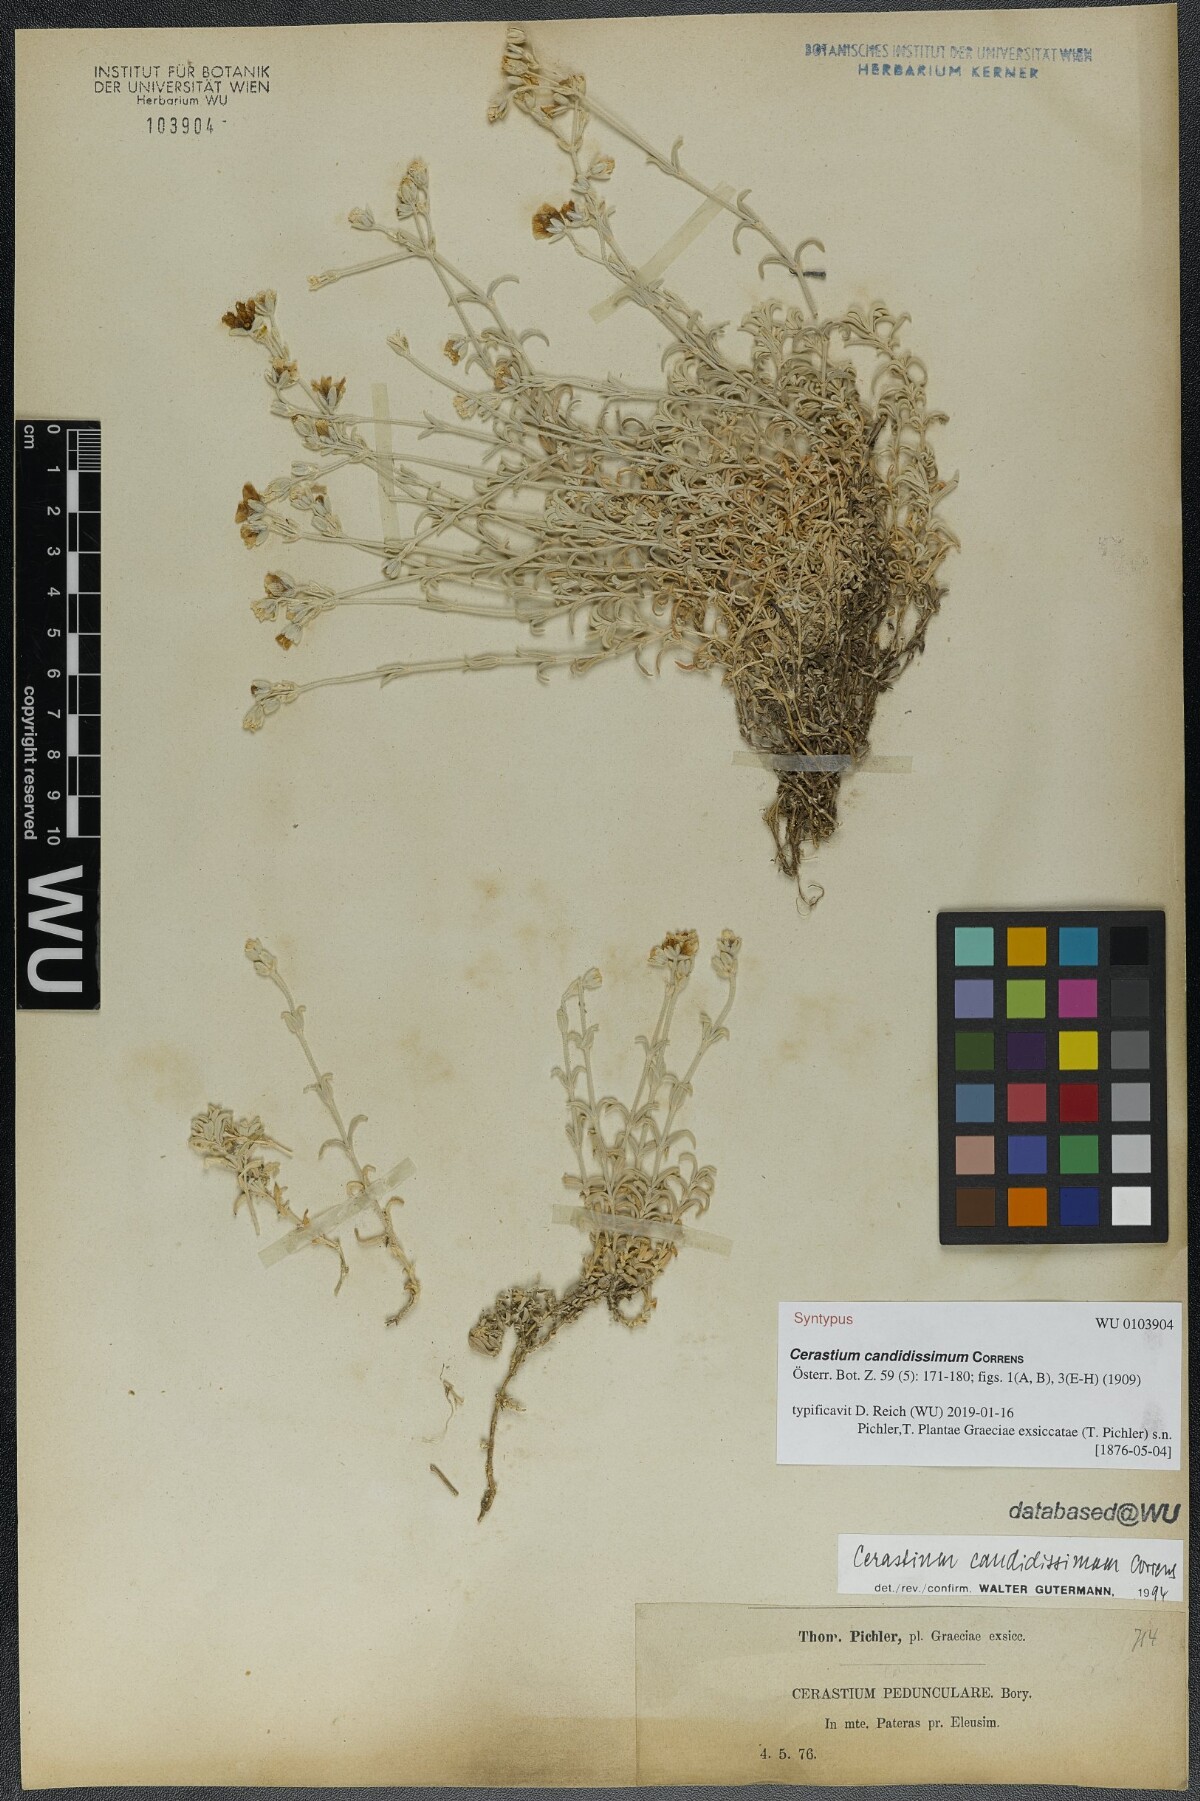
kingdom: Plantae
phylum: Tracheophyta
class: Magnoliopsida
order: Caryophyllales
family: Caryophyllaceae
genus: Cerastium
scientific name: Cerastium candidissimum
